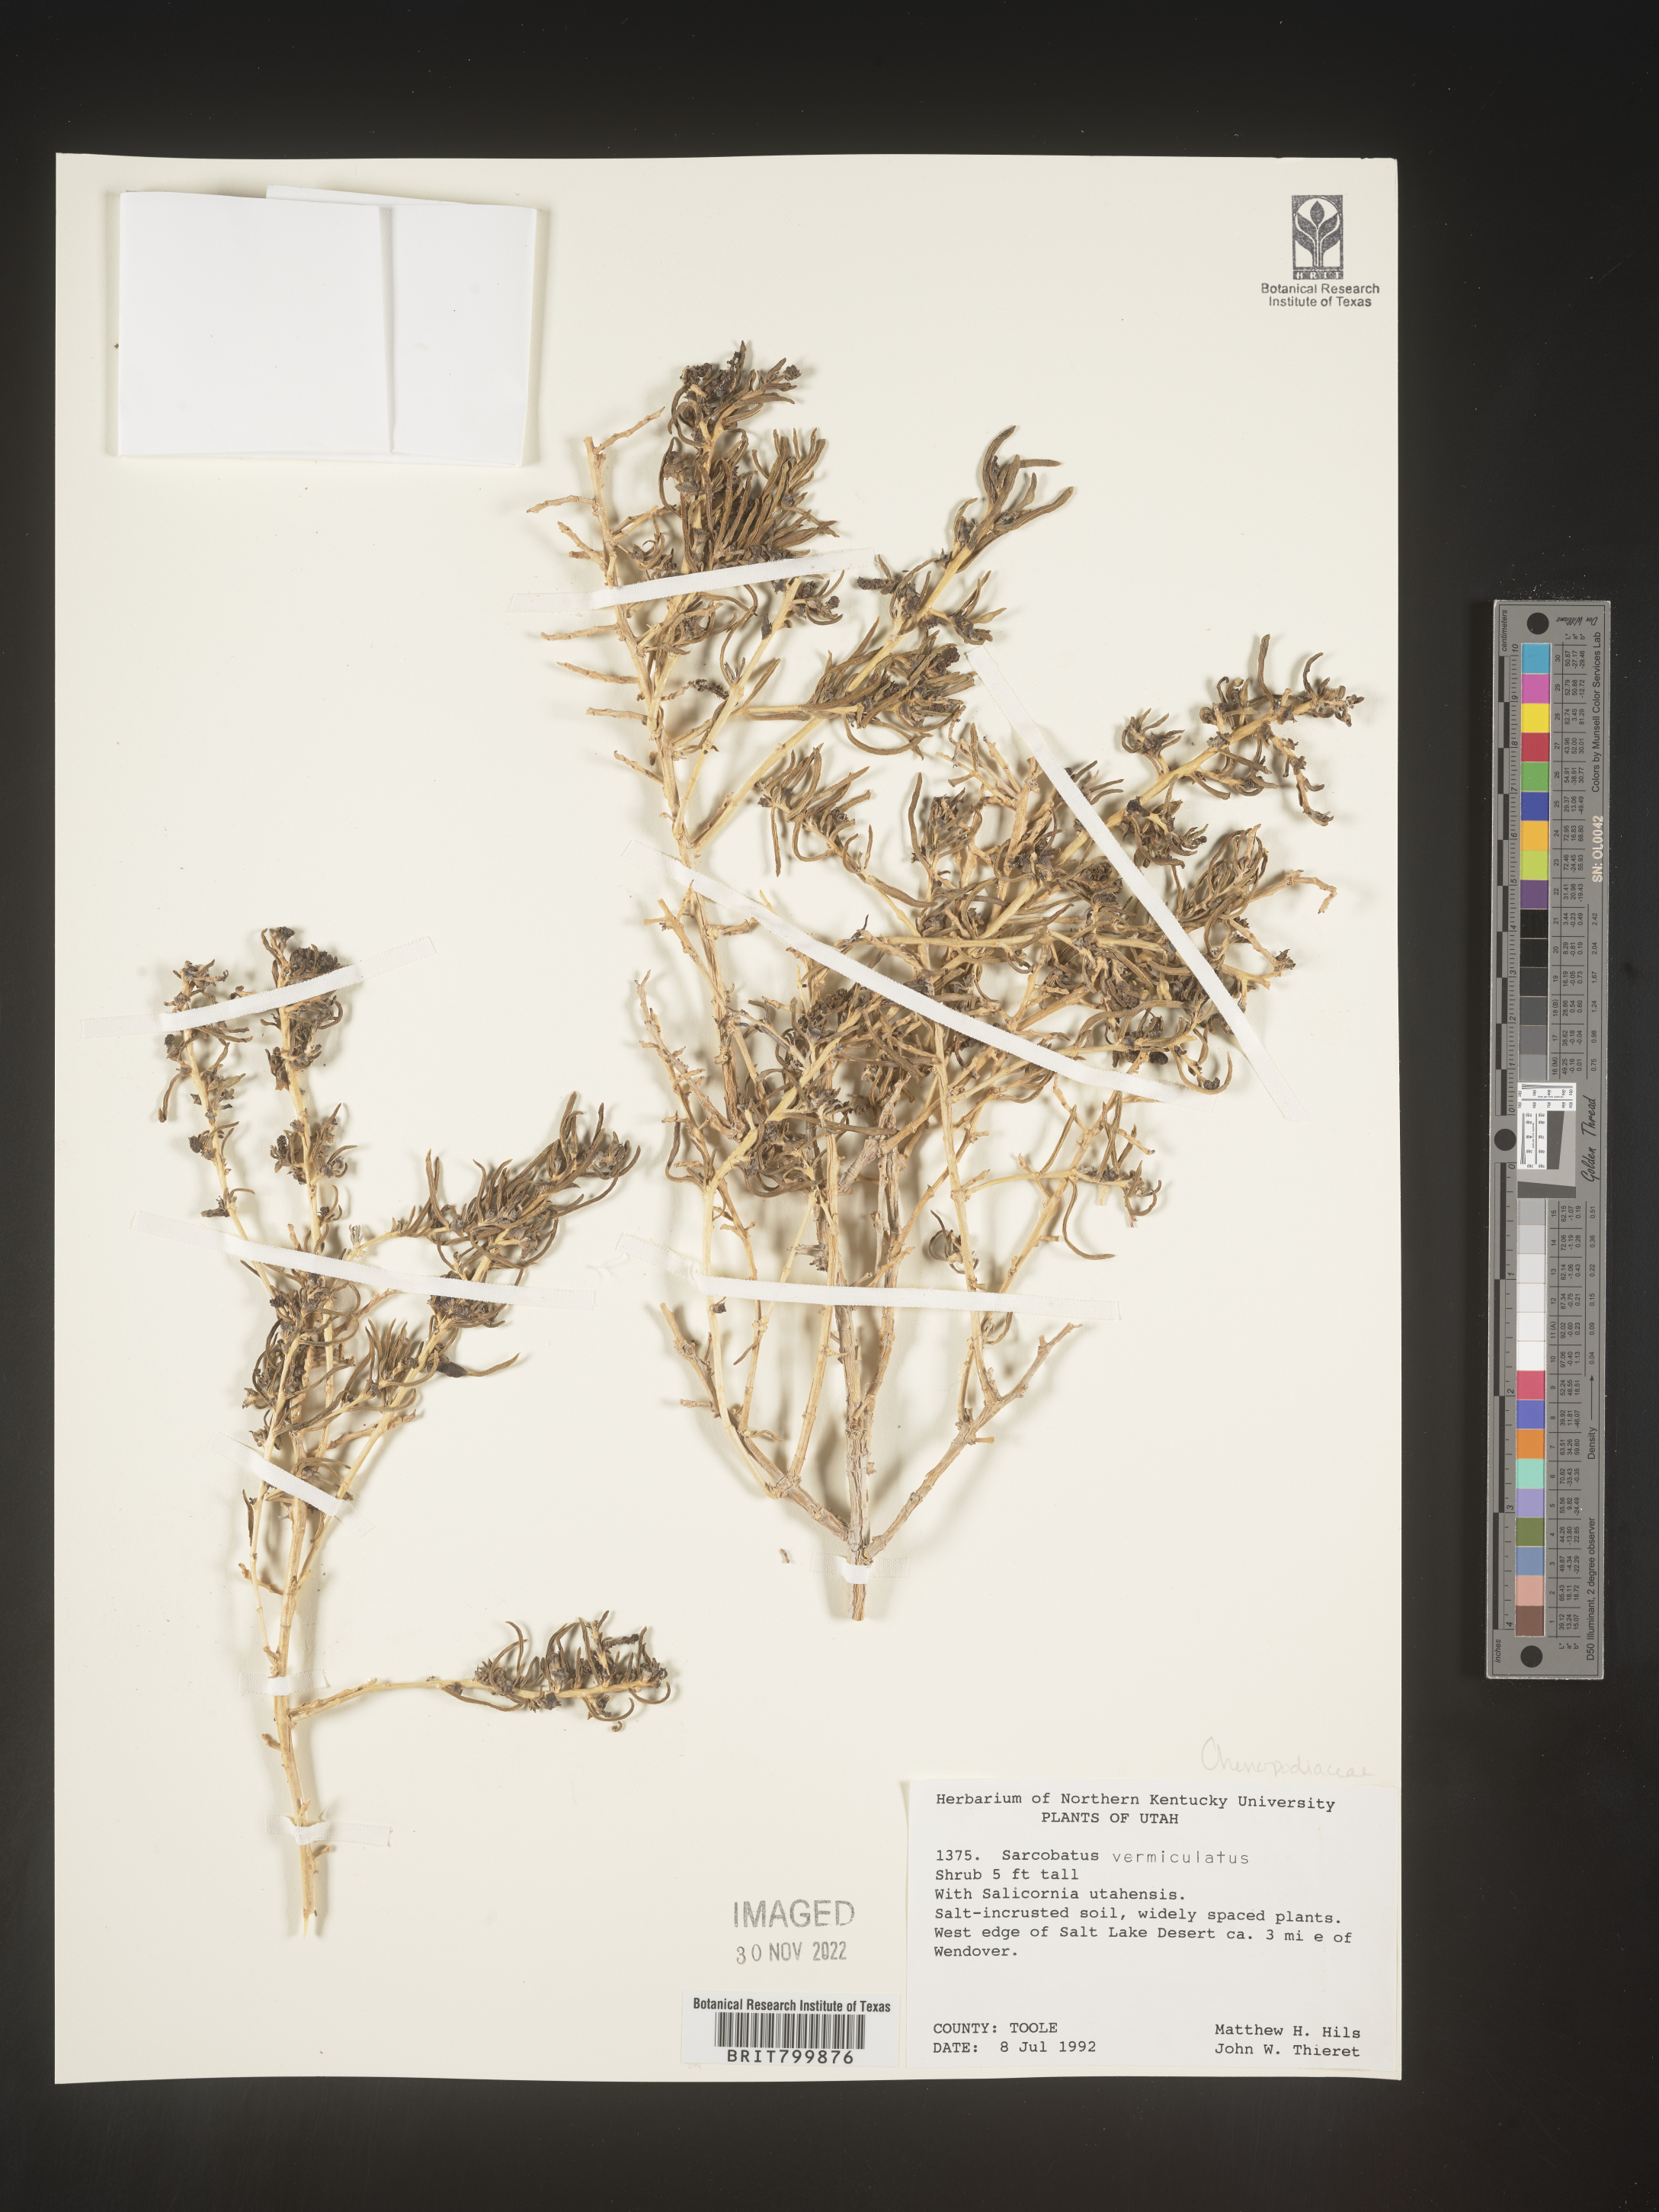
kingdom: Plantae
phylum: Tracheophyta
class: Magnoliopsida
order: Caryophyllales
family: Sarcobataceae
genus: Sarcobatus
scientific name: Sarcobatus vermiculatus
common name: Greasewood
